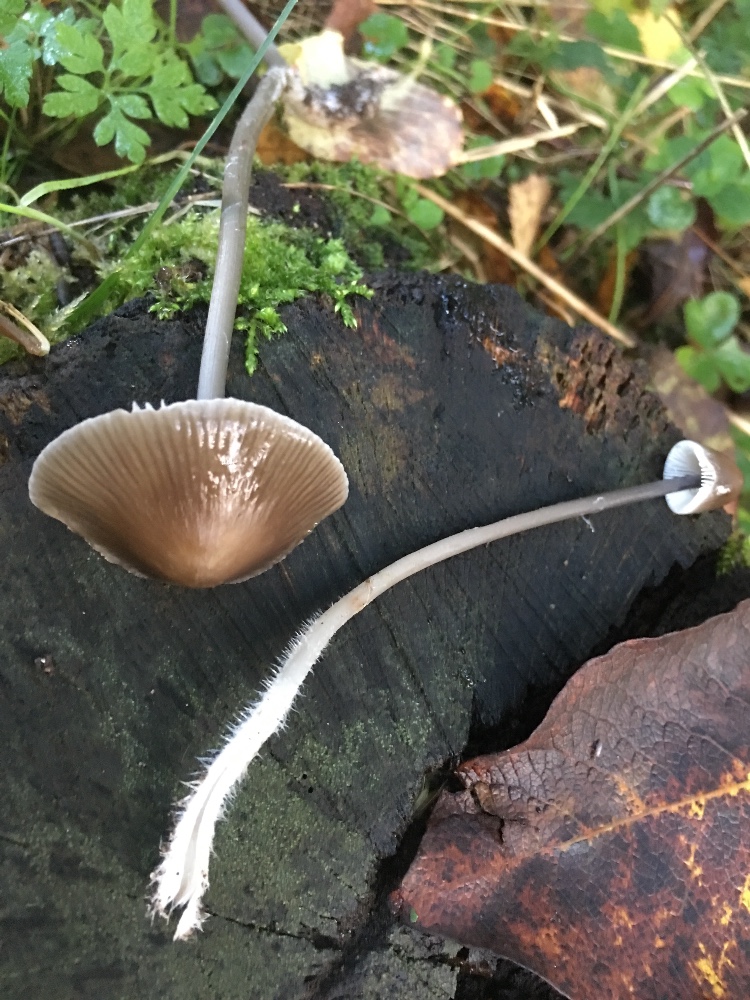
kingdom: Fungi
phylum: Basidiomycota
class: Agaricomycetes
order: Agaricales
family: Mycenaceae
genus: Mycena
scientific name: Mycena polygramma
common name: mangestribet huesvamp
